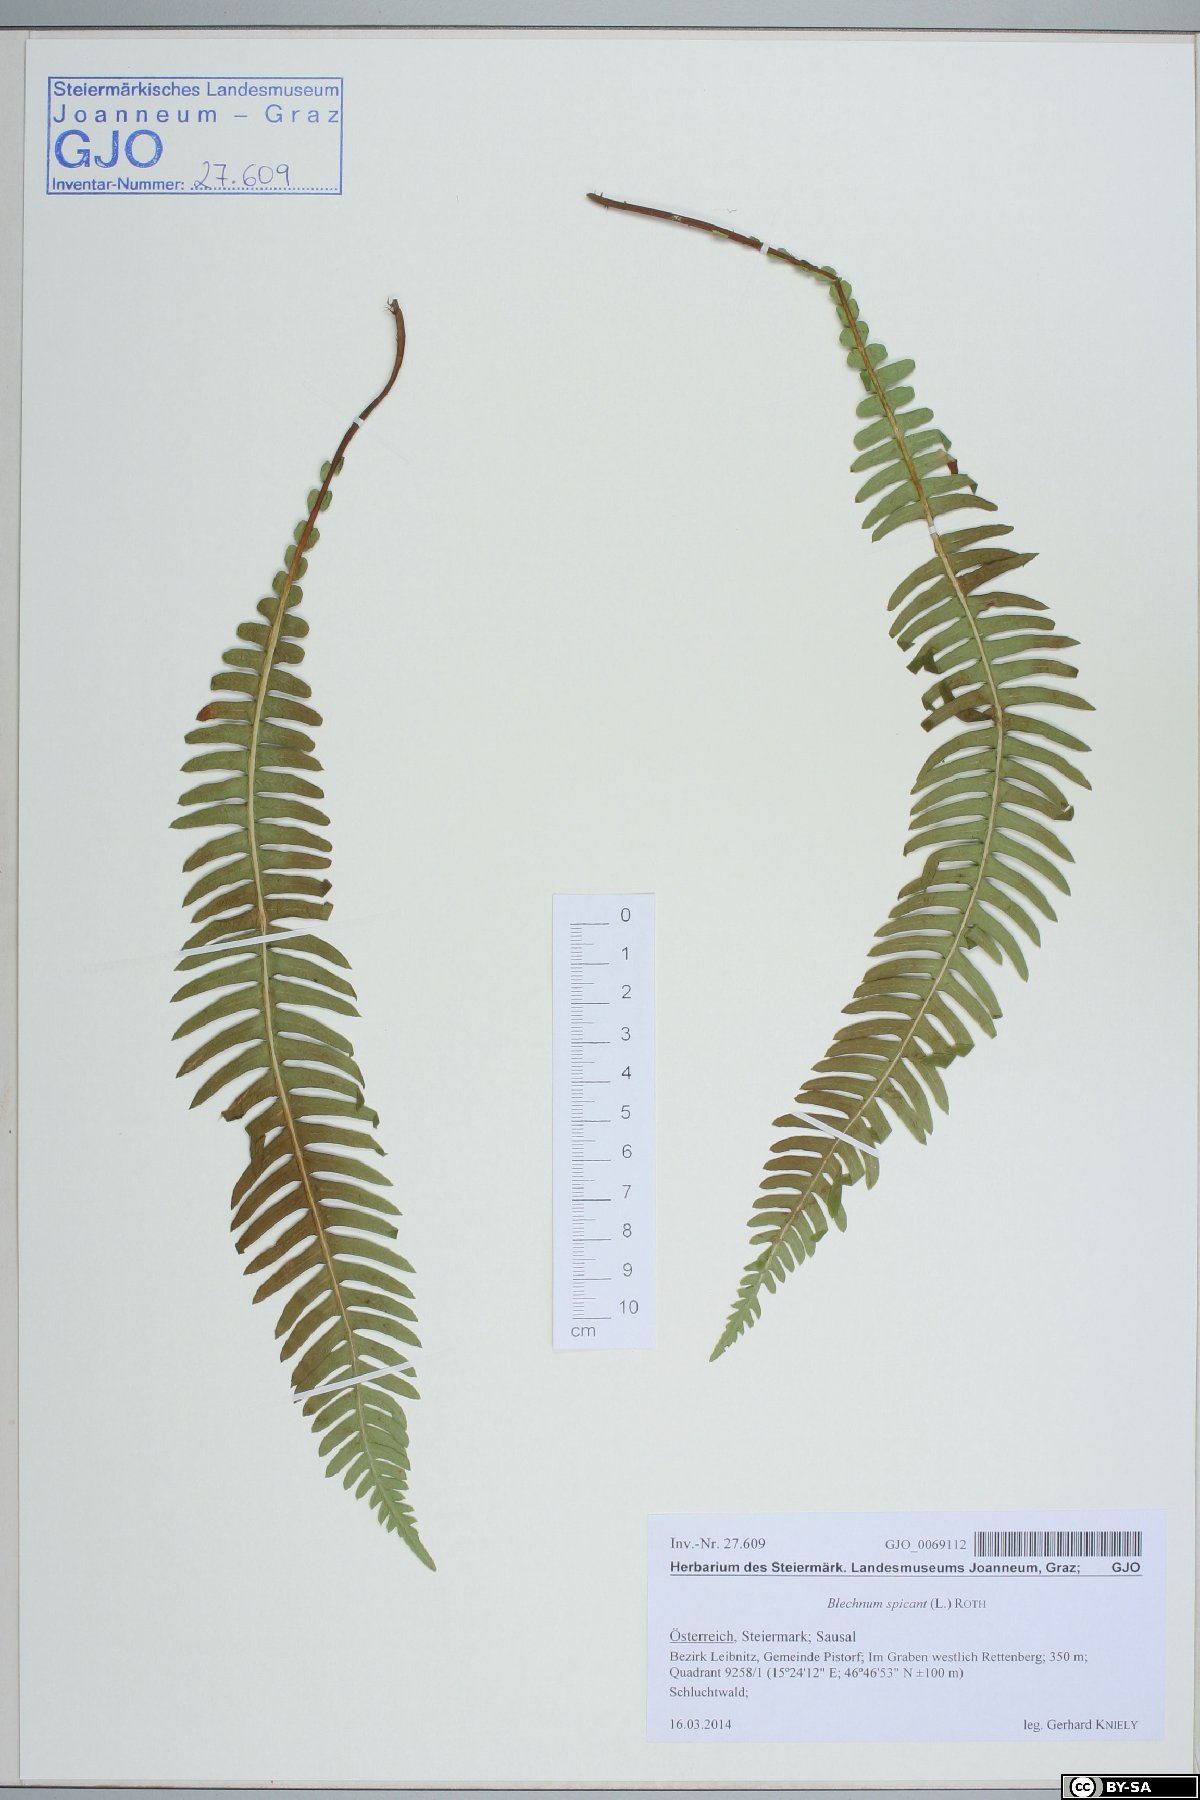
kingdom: Plantae
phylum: Tracheophyta
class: Polypodiopsida
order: Polypodiales
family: Blechnaceae
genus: Struthiopteris
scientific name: Struthiopteris spicant
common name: Deer fern
